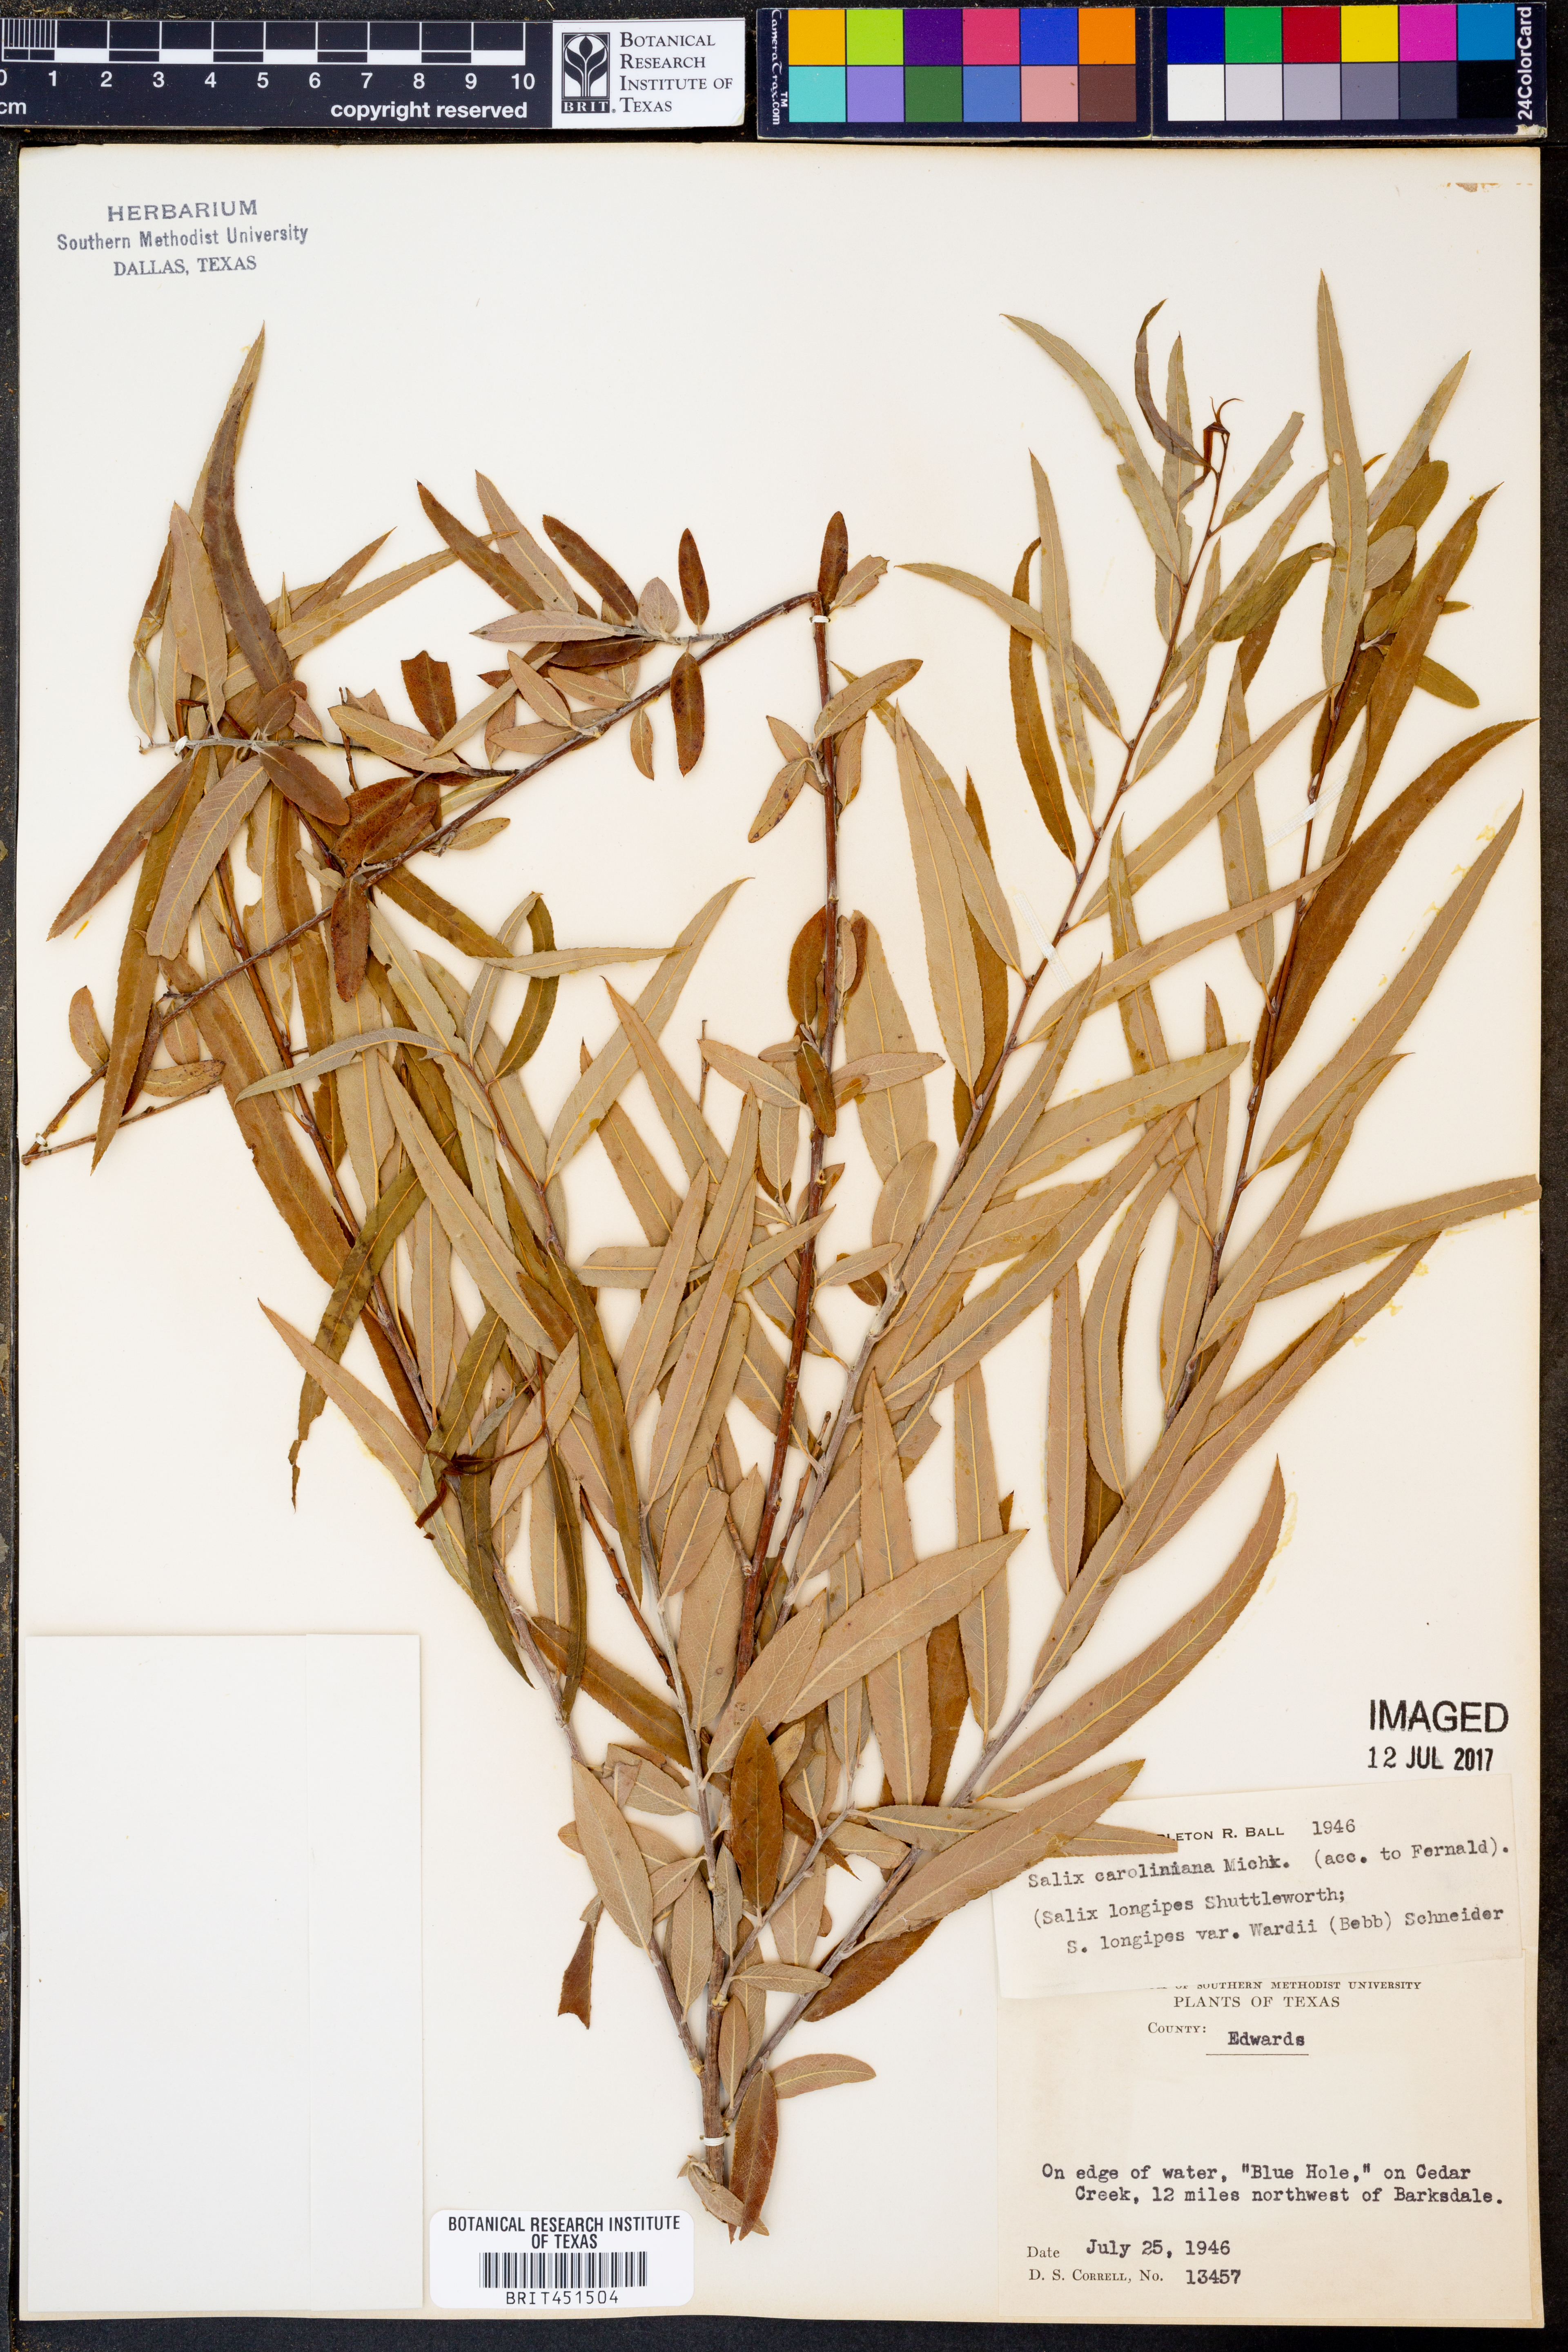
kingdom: Plantae
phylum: Tracheophyta
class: Magnoliopsida
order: Malpighiales
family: Salicaceae
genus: Salix
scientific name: Salix caroliniana
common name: Carolina willow
